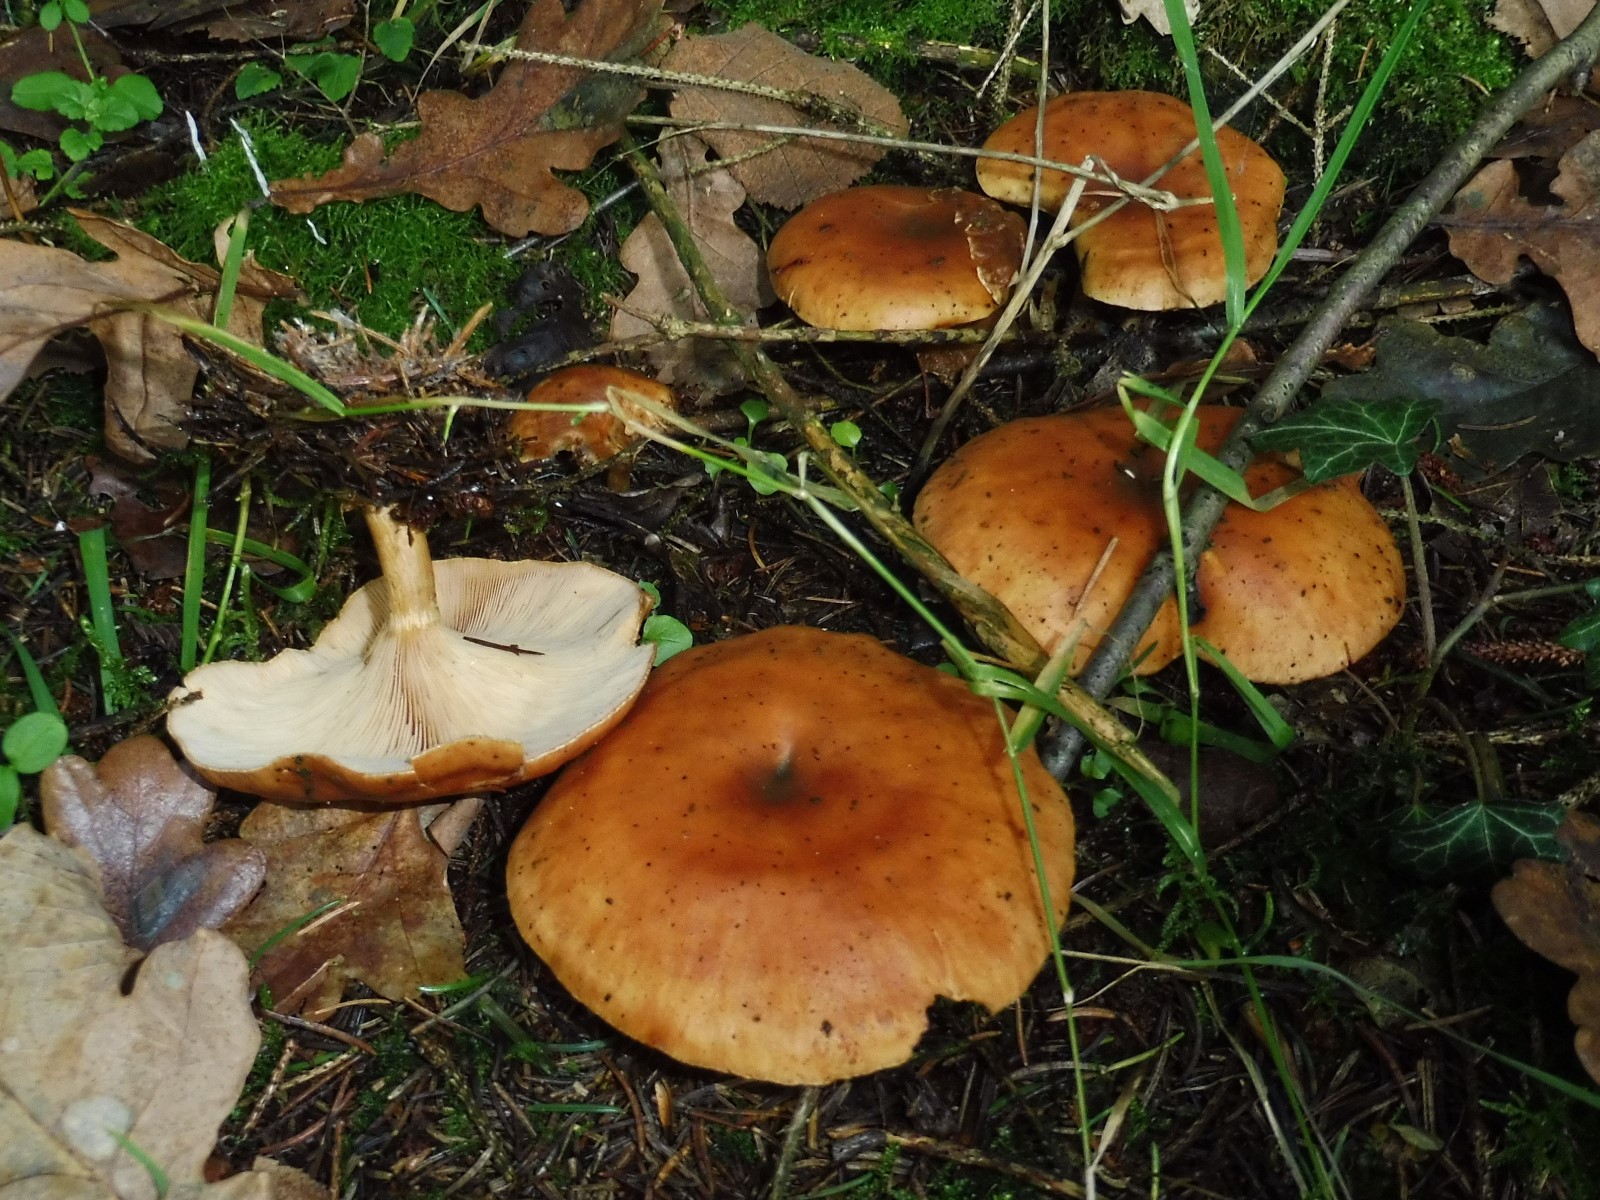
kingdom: Fungi
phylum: Basidiomycota
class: Agaricomycetes
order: Agaricales
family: Tricholomataceae
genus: Paralepista
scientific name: Paralepista flaccida
